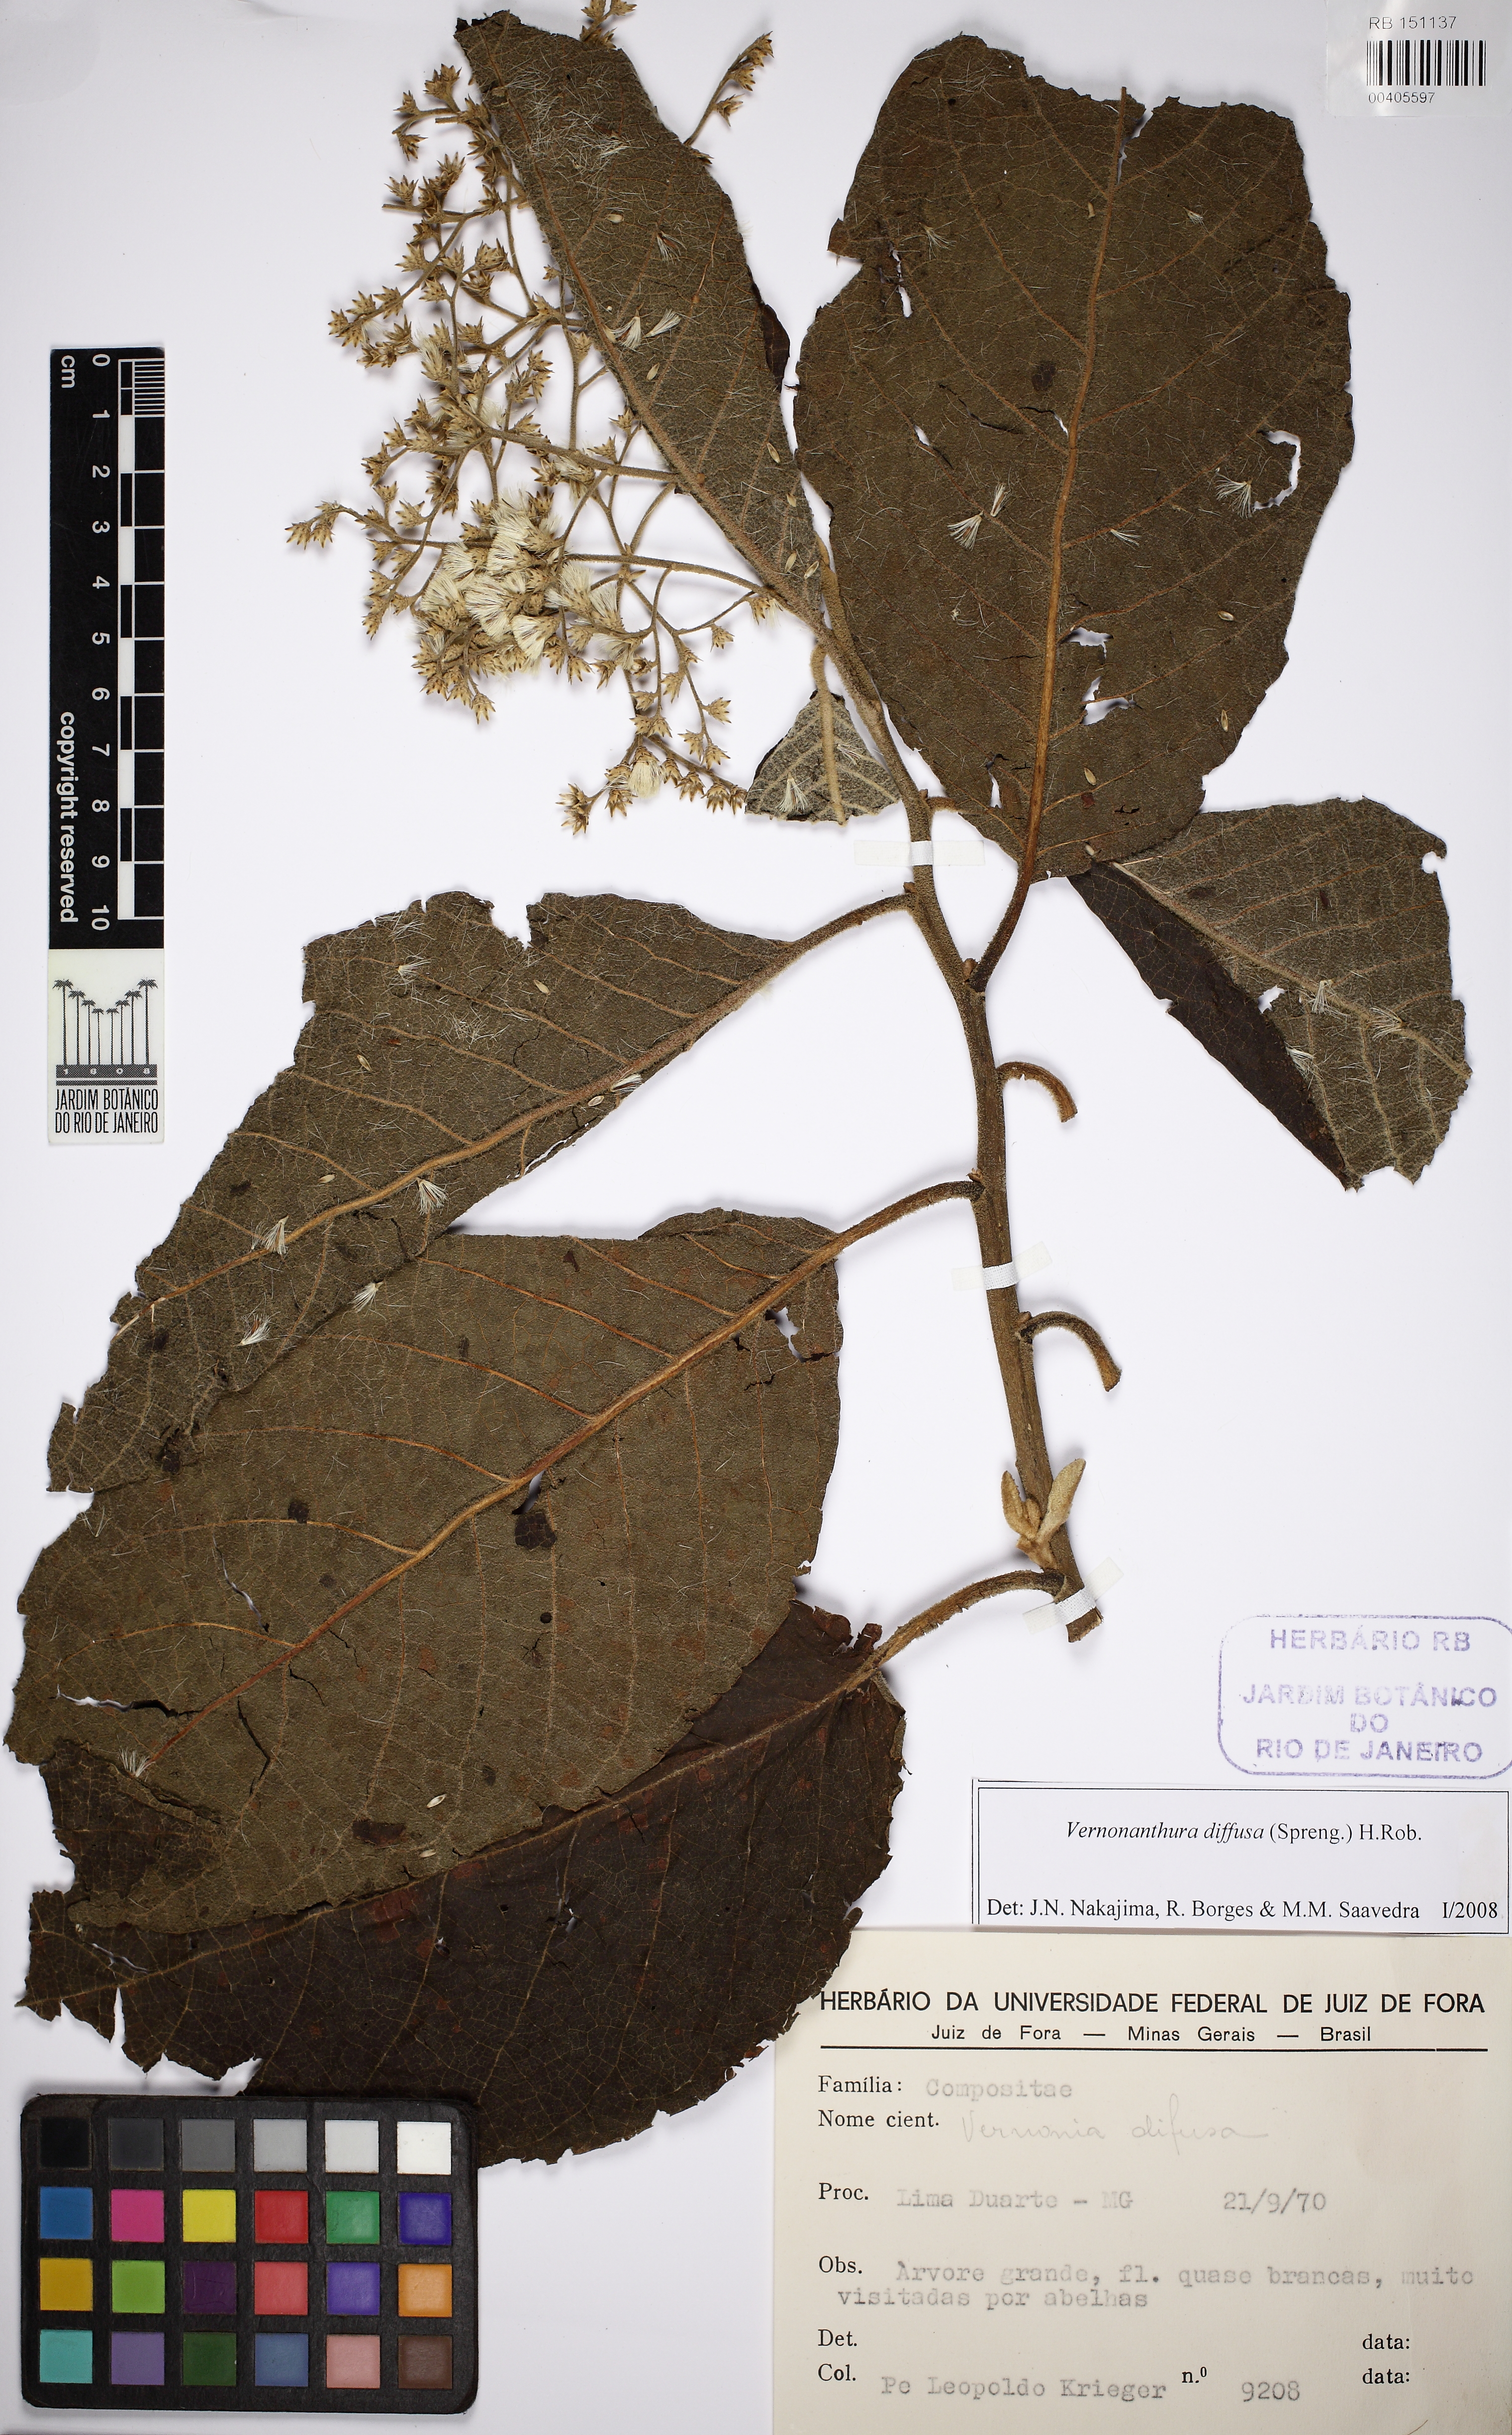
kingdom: Plantae
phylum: Tracheophyta
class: Magnoliopsida
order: Asterales
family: Asteraceae
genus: Vernonanthura
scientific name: Vernonanthura divaricata
